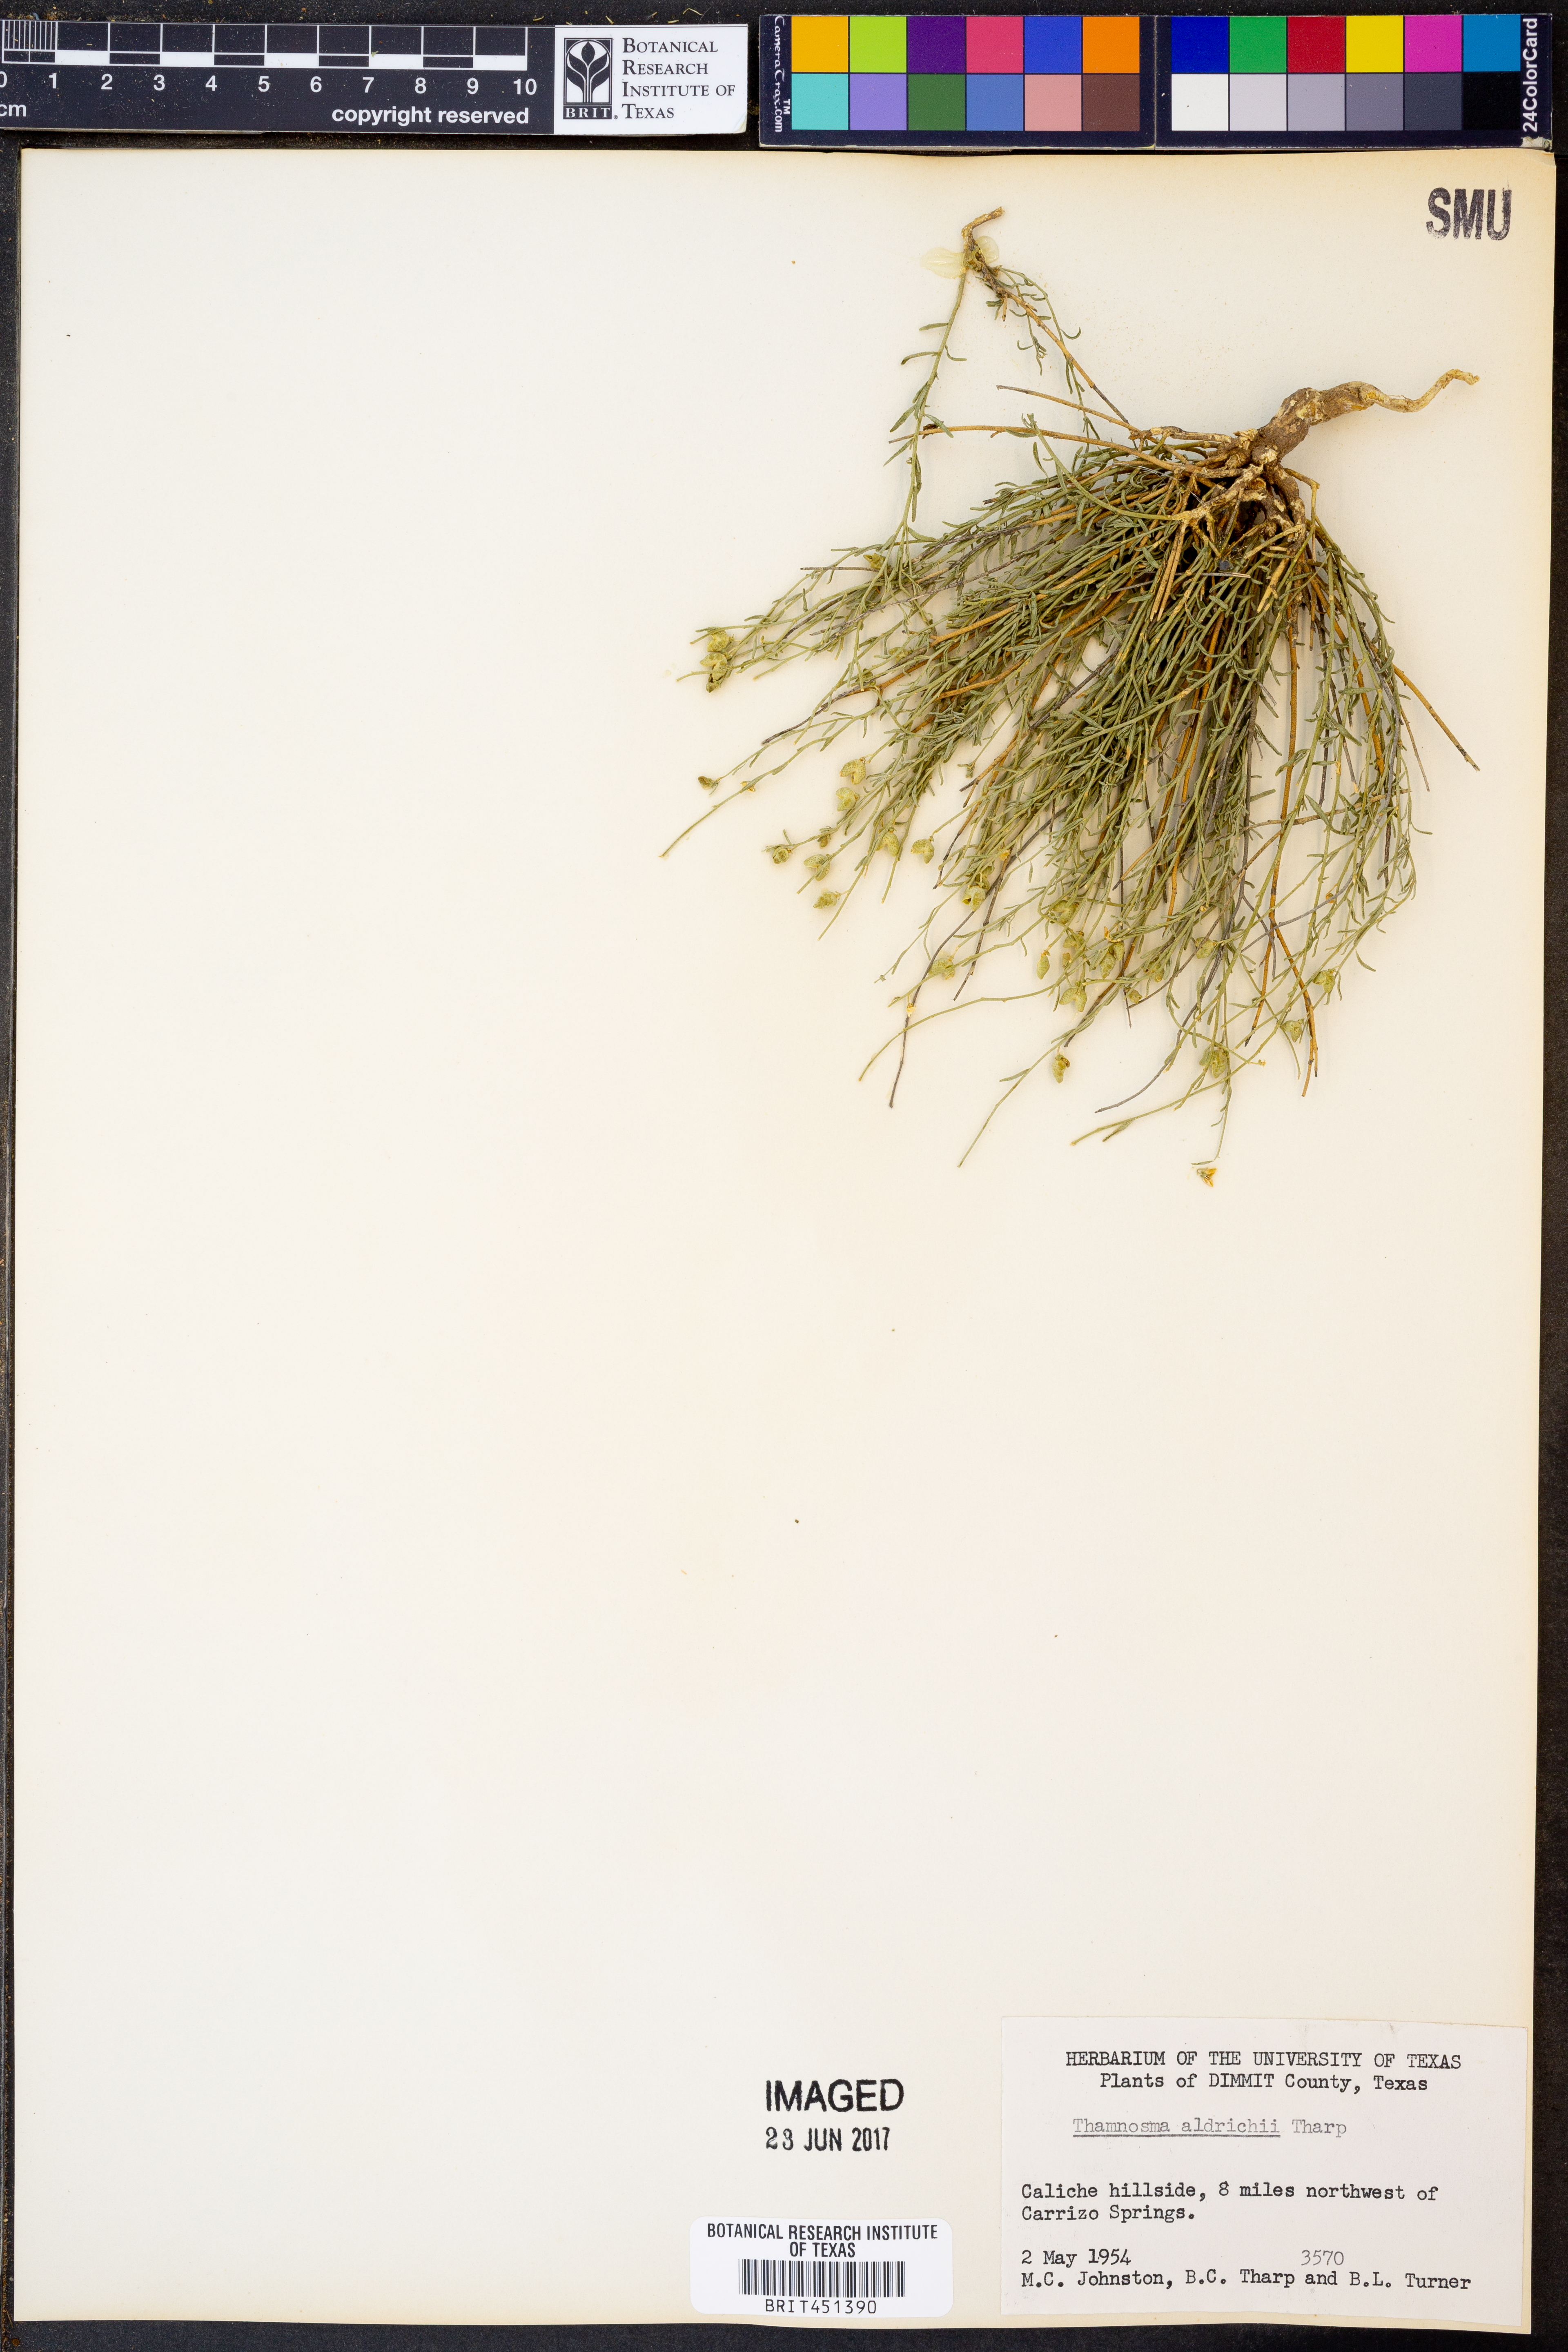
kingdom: Plantae
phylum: Tracheophyta
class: Magnoliopsida
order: Sapindales
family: Rutaceae
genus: Thamnosma
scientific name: Thamnosma texana
